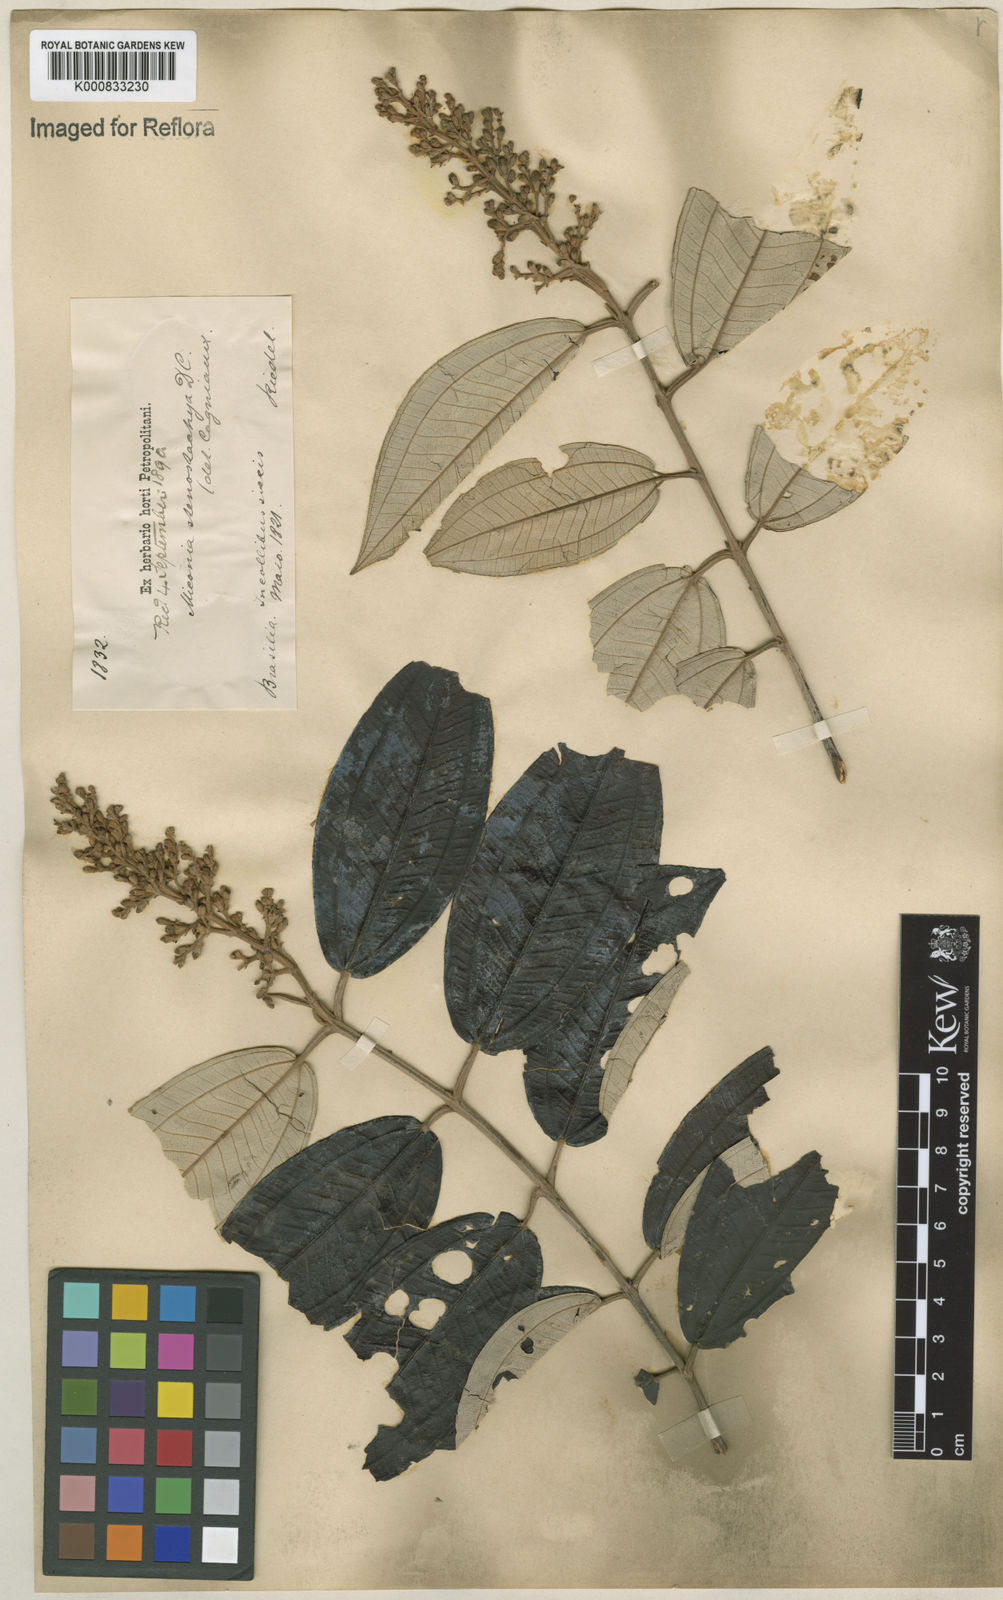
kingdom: Plantae
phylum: Tracheophyta
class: Magnoliopsida
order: Myrtales
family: Melastomataceae
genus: Miconia
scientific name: Miconia stenostachya
